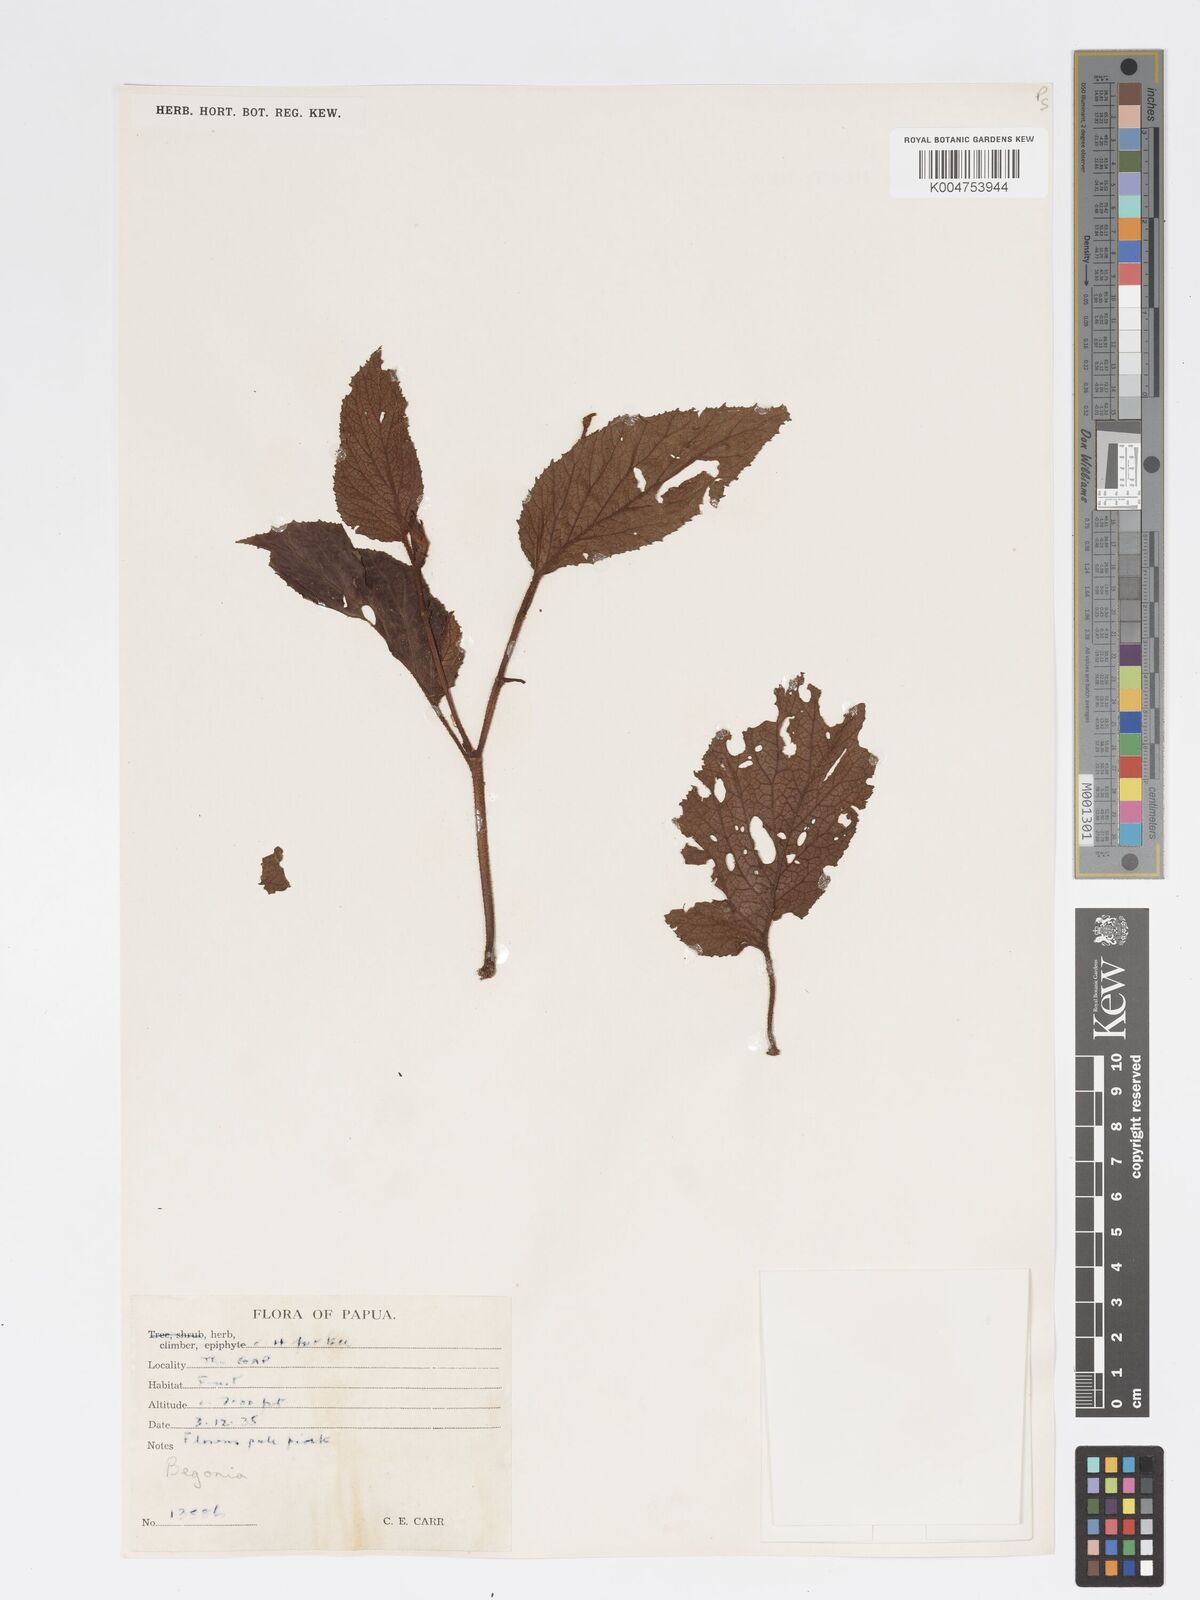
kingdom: Plantae
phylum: Tracheophyta
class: Magnoliopsida
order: Cucurbitales
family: Begoniaceae
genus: Begonia
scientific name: Begonia
